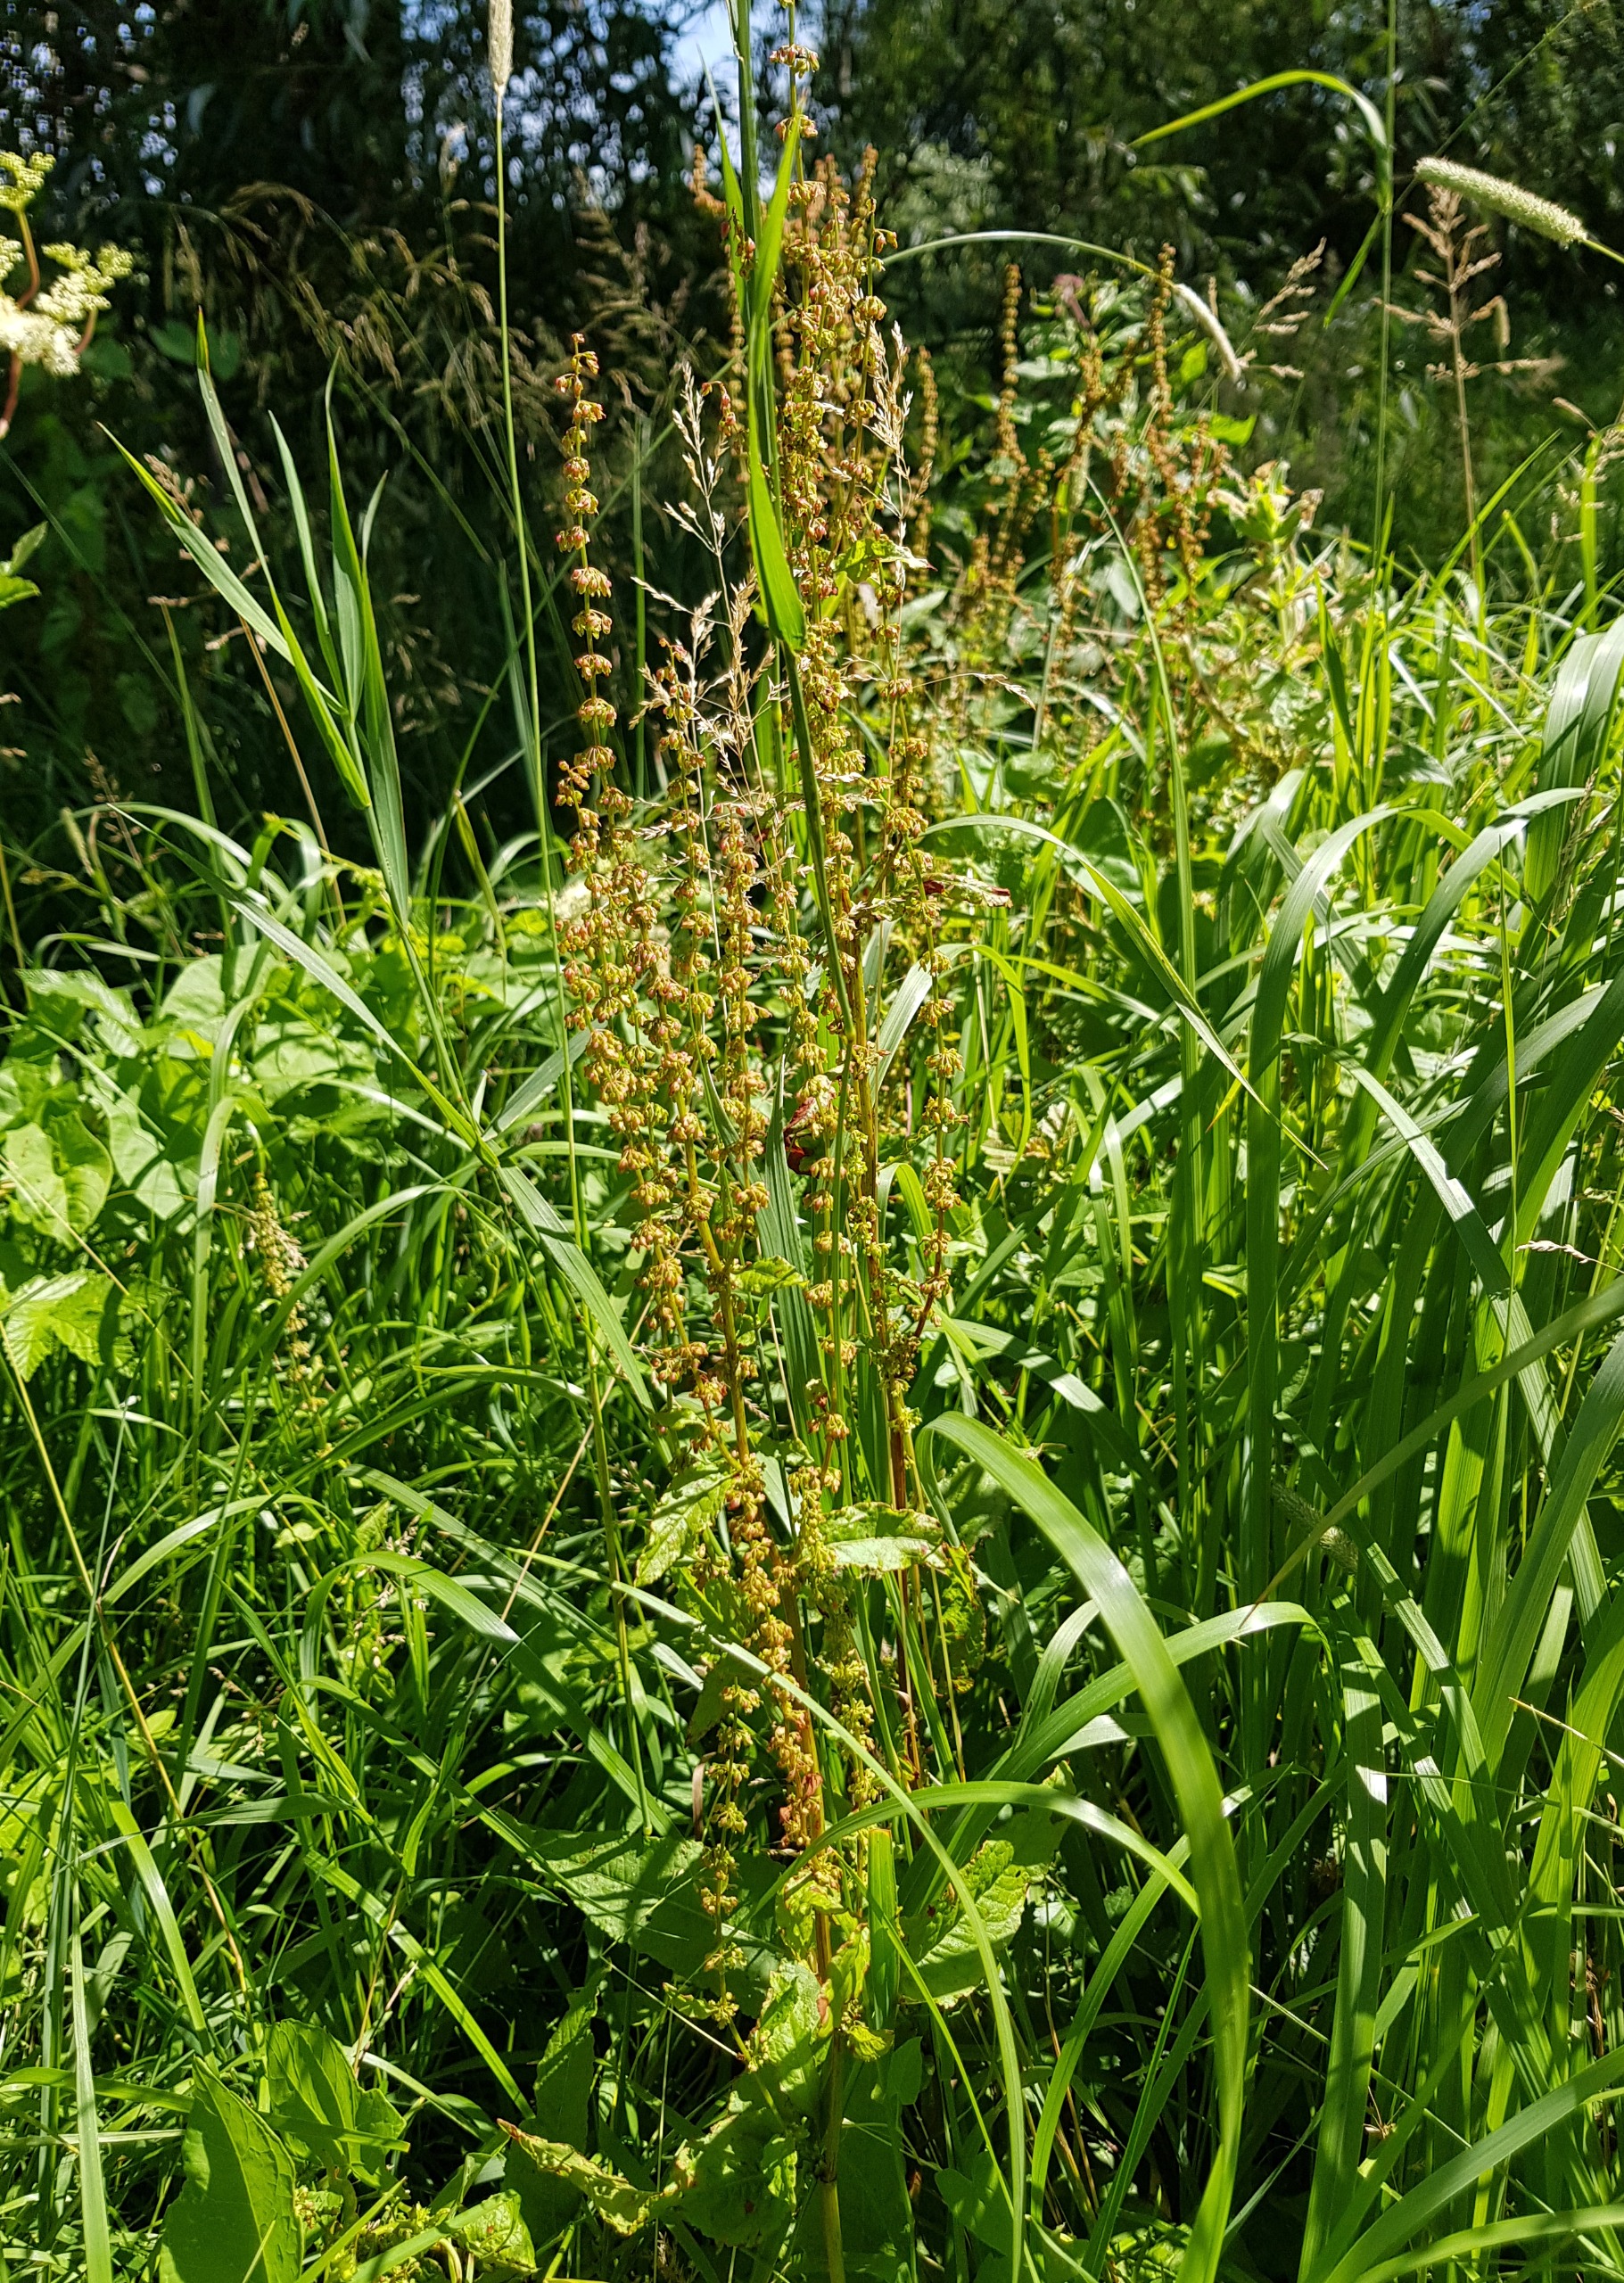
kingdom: Plantae
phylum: Tracheophyta
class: Magnoliopsida
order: Caryophyllales
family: Polygonaceae
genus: Rumex
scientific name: Rumex sanguineus
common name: Skov-skræppe
